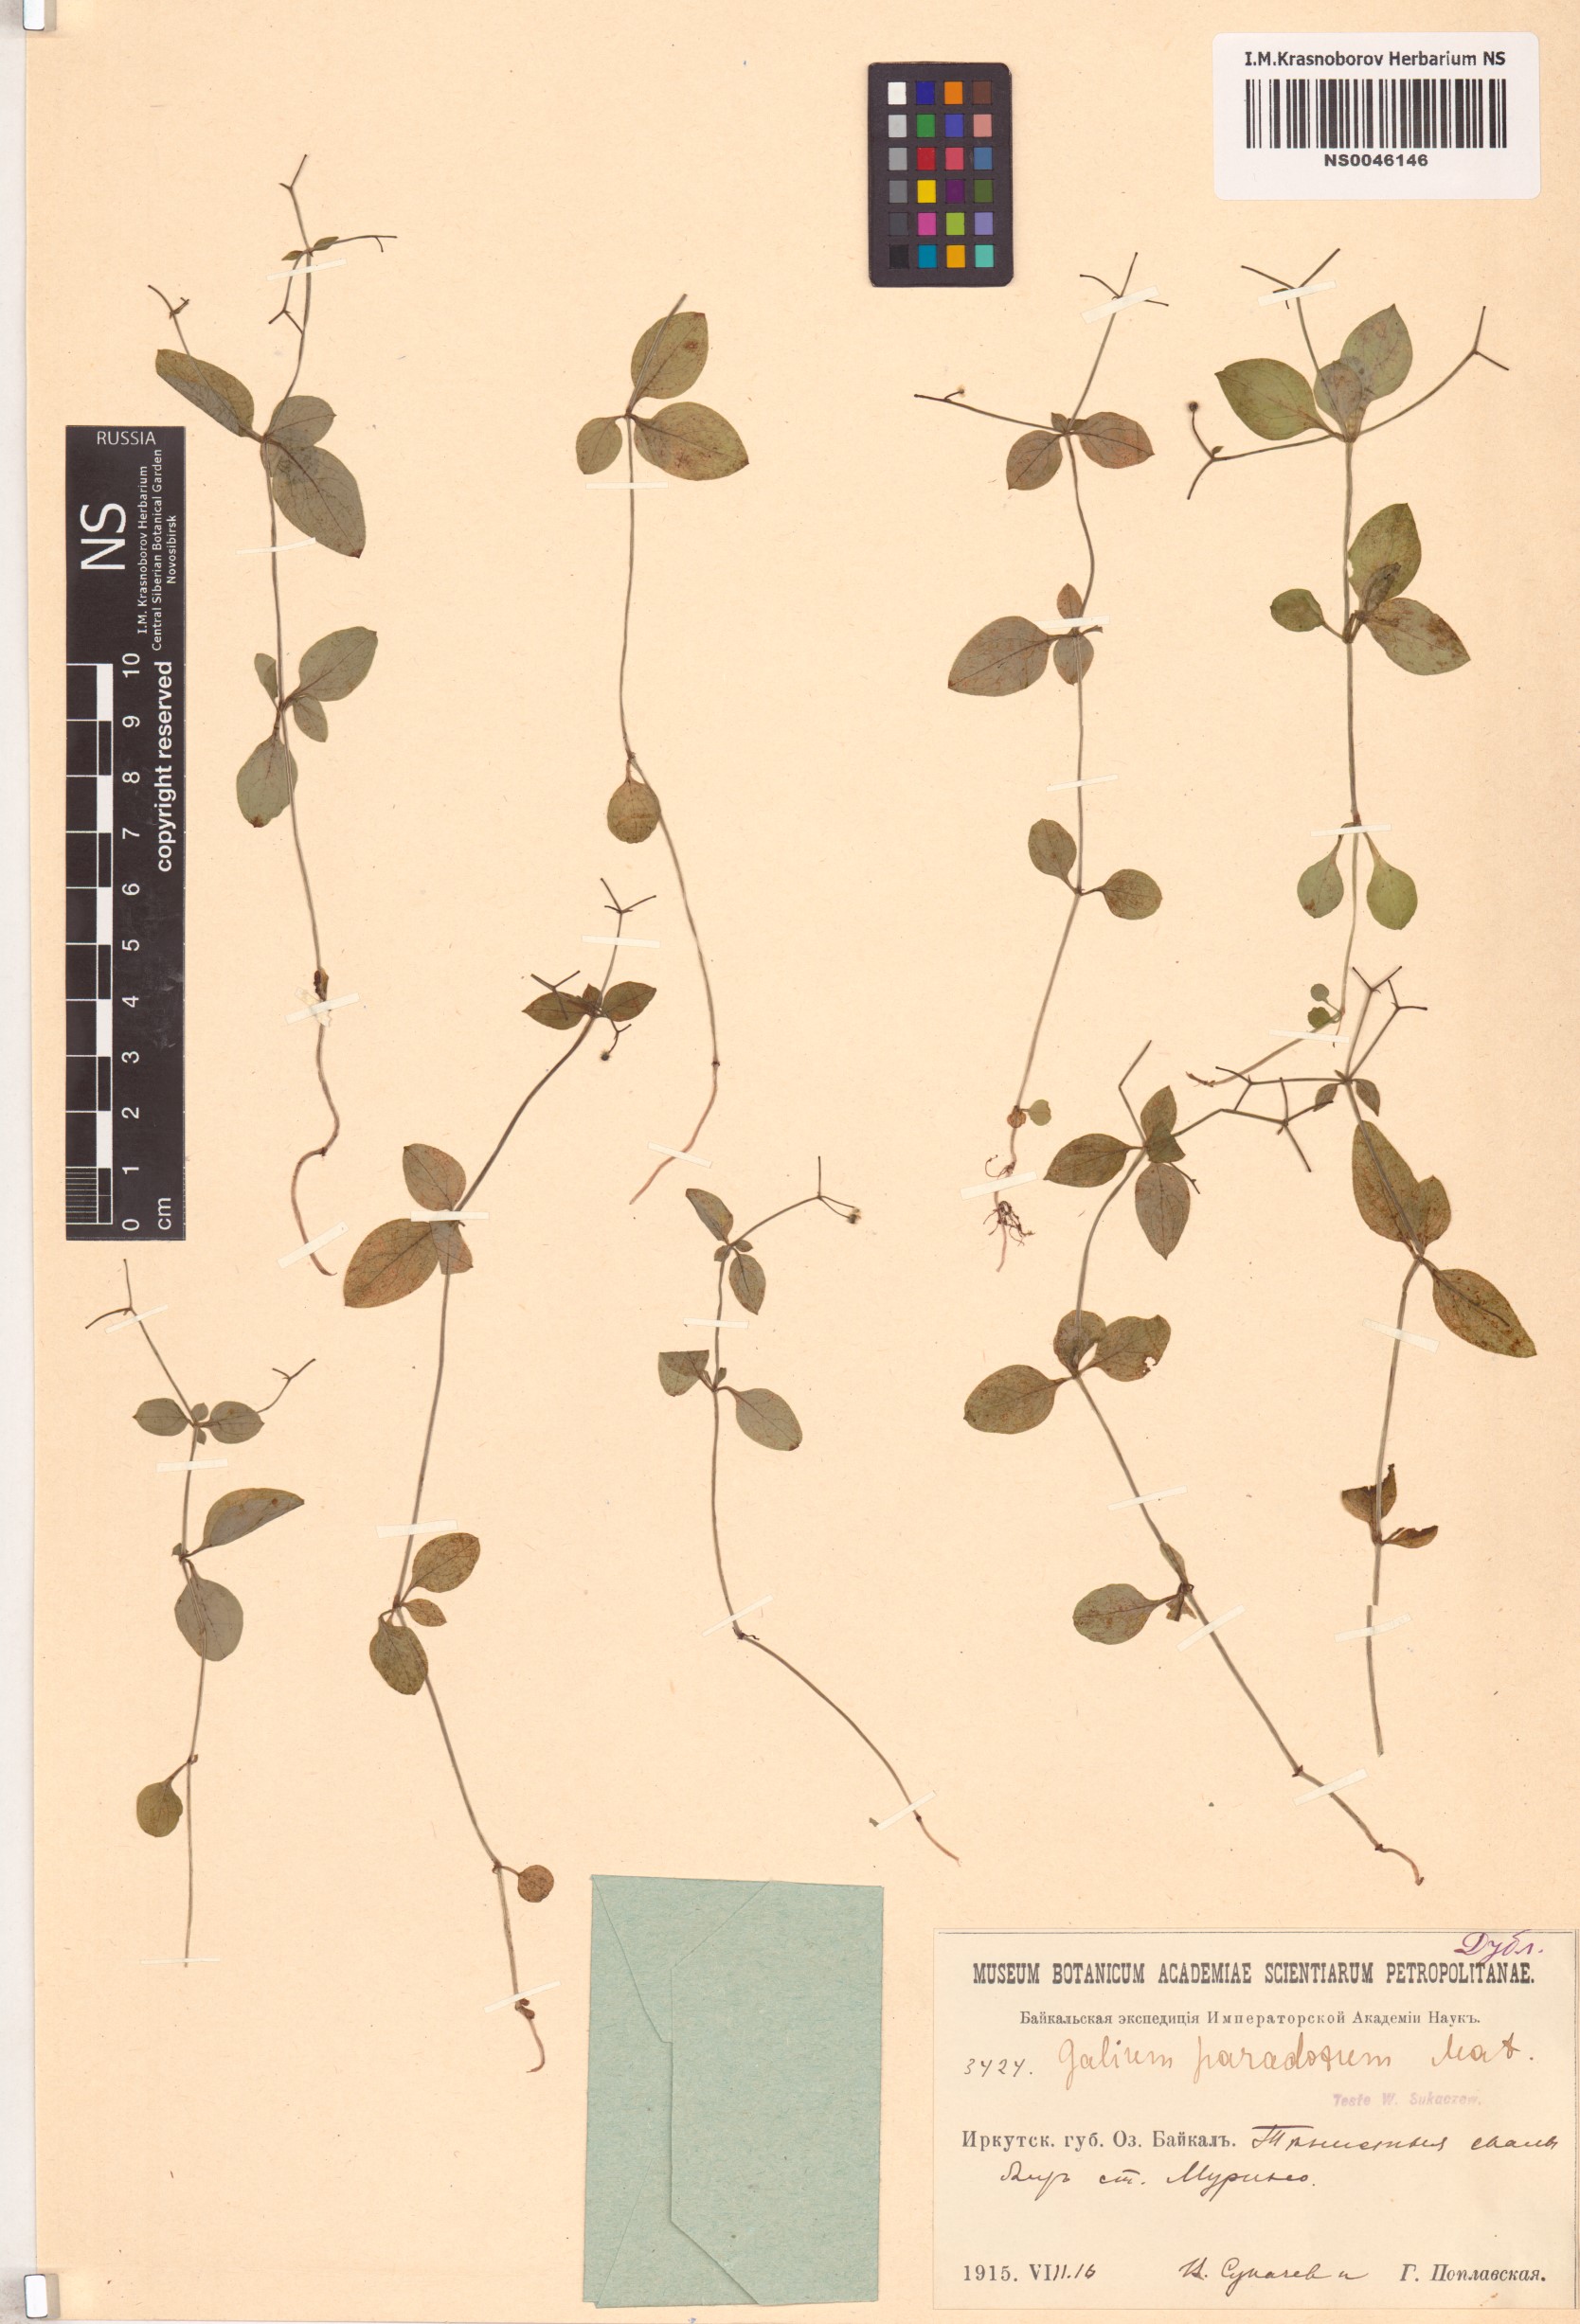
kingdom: Plantae
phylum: Tracheophyta
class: Magnoliopsida
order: Gentianales
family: Rubiaceae
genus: Pseudogalium
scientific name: Pseudogalium paradoxum
